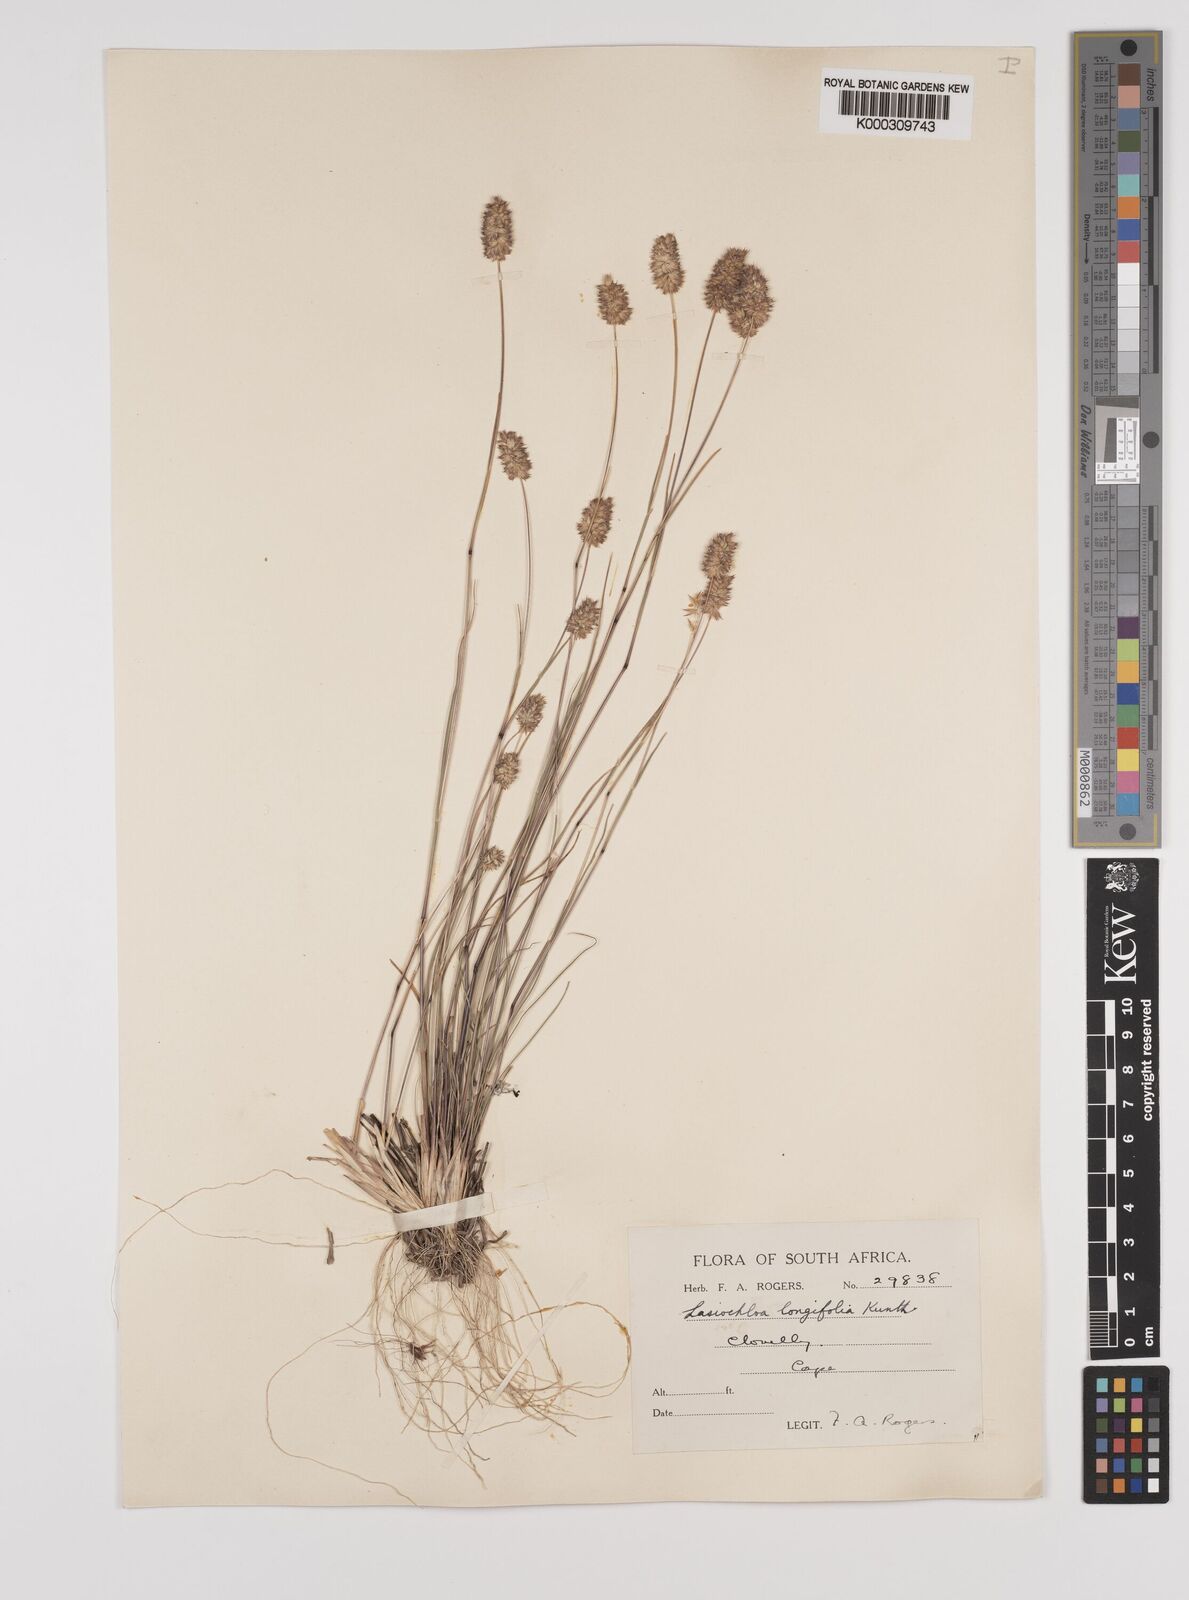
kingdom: Plantae
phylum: Tracheophyta
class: Liliopsida
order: Poales
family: Poaceae
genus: Tribolium
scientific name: Tribolium hispidum
